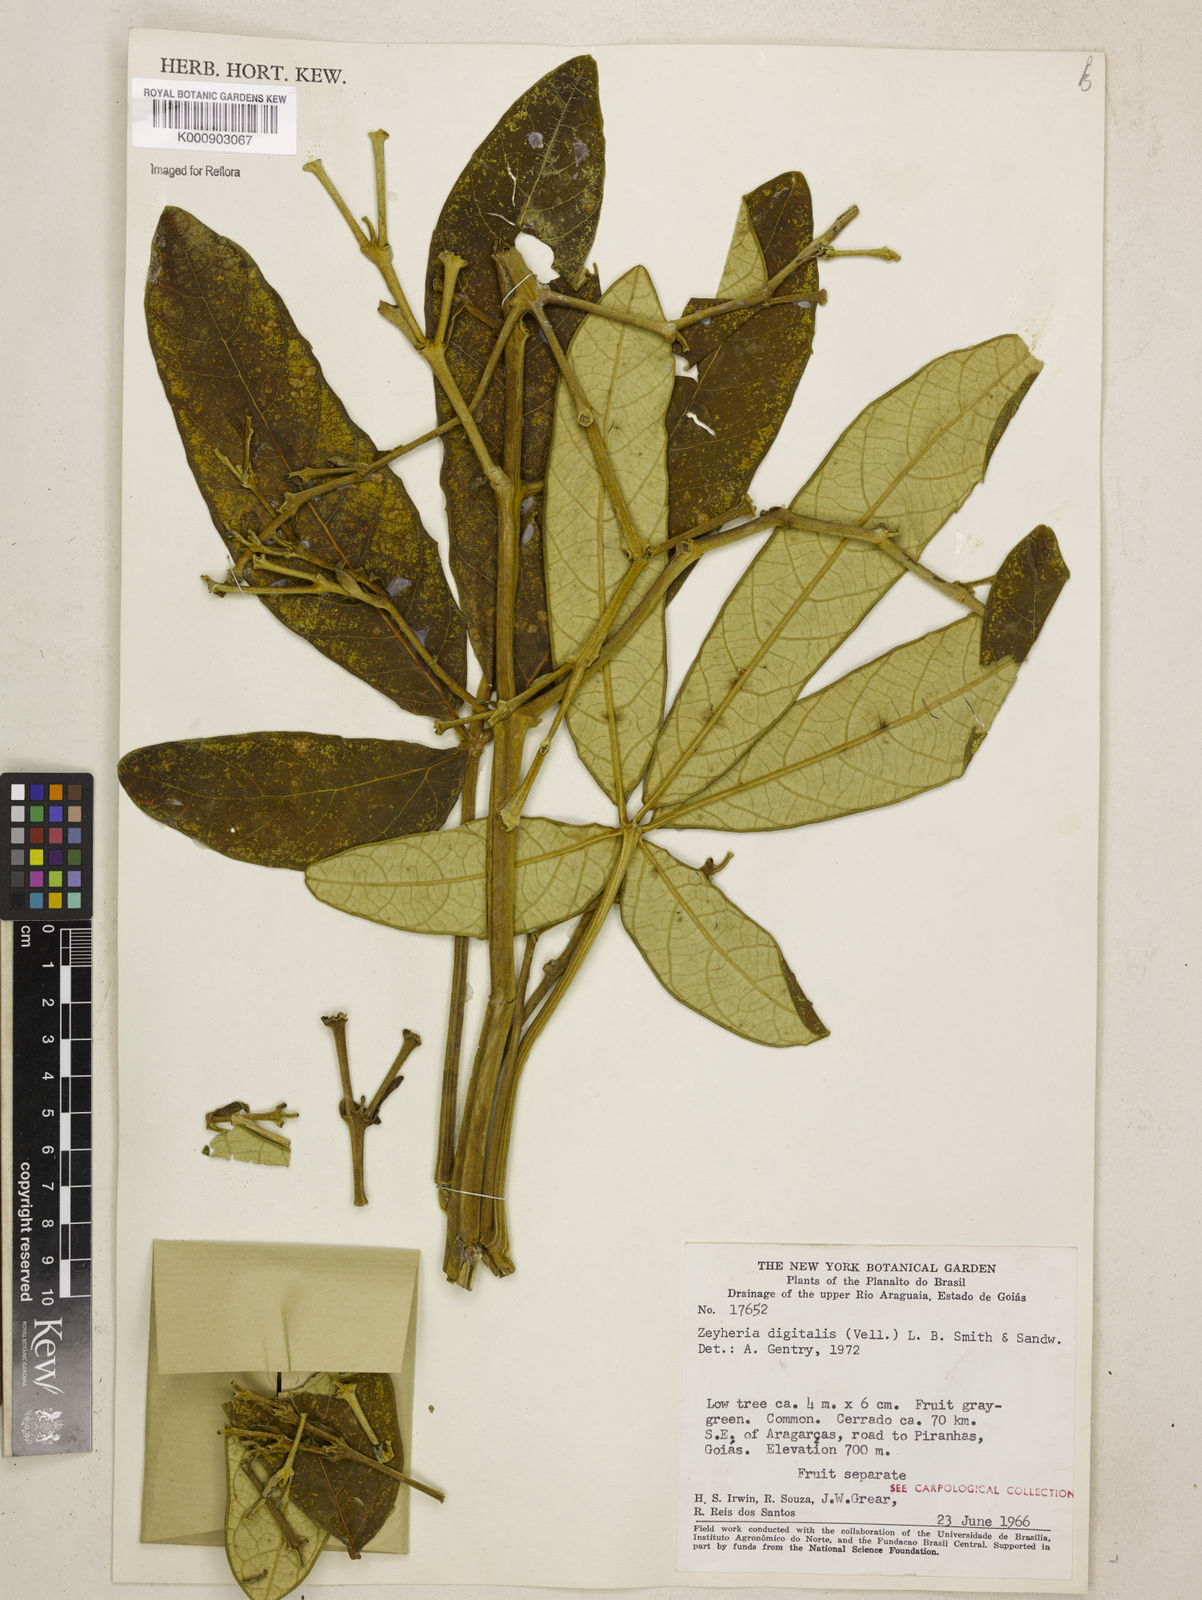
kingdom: Plantae
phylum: Tracheophyta
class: Magnoliopsida
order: Lamiales
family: Bignoniaceae
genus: Zeyheria
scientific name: Zeyheria
